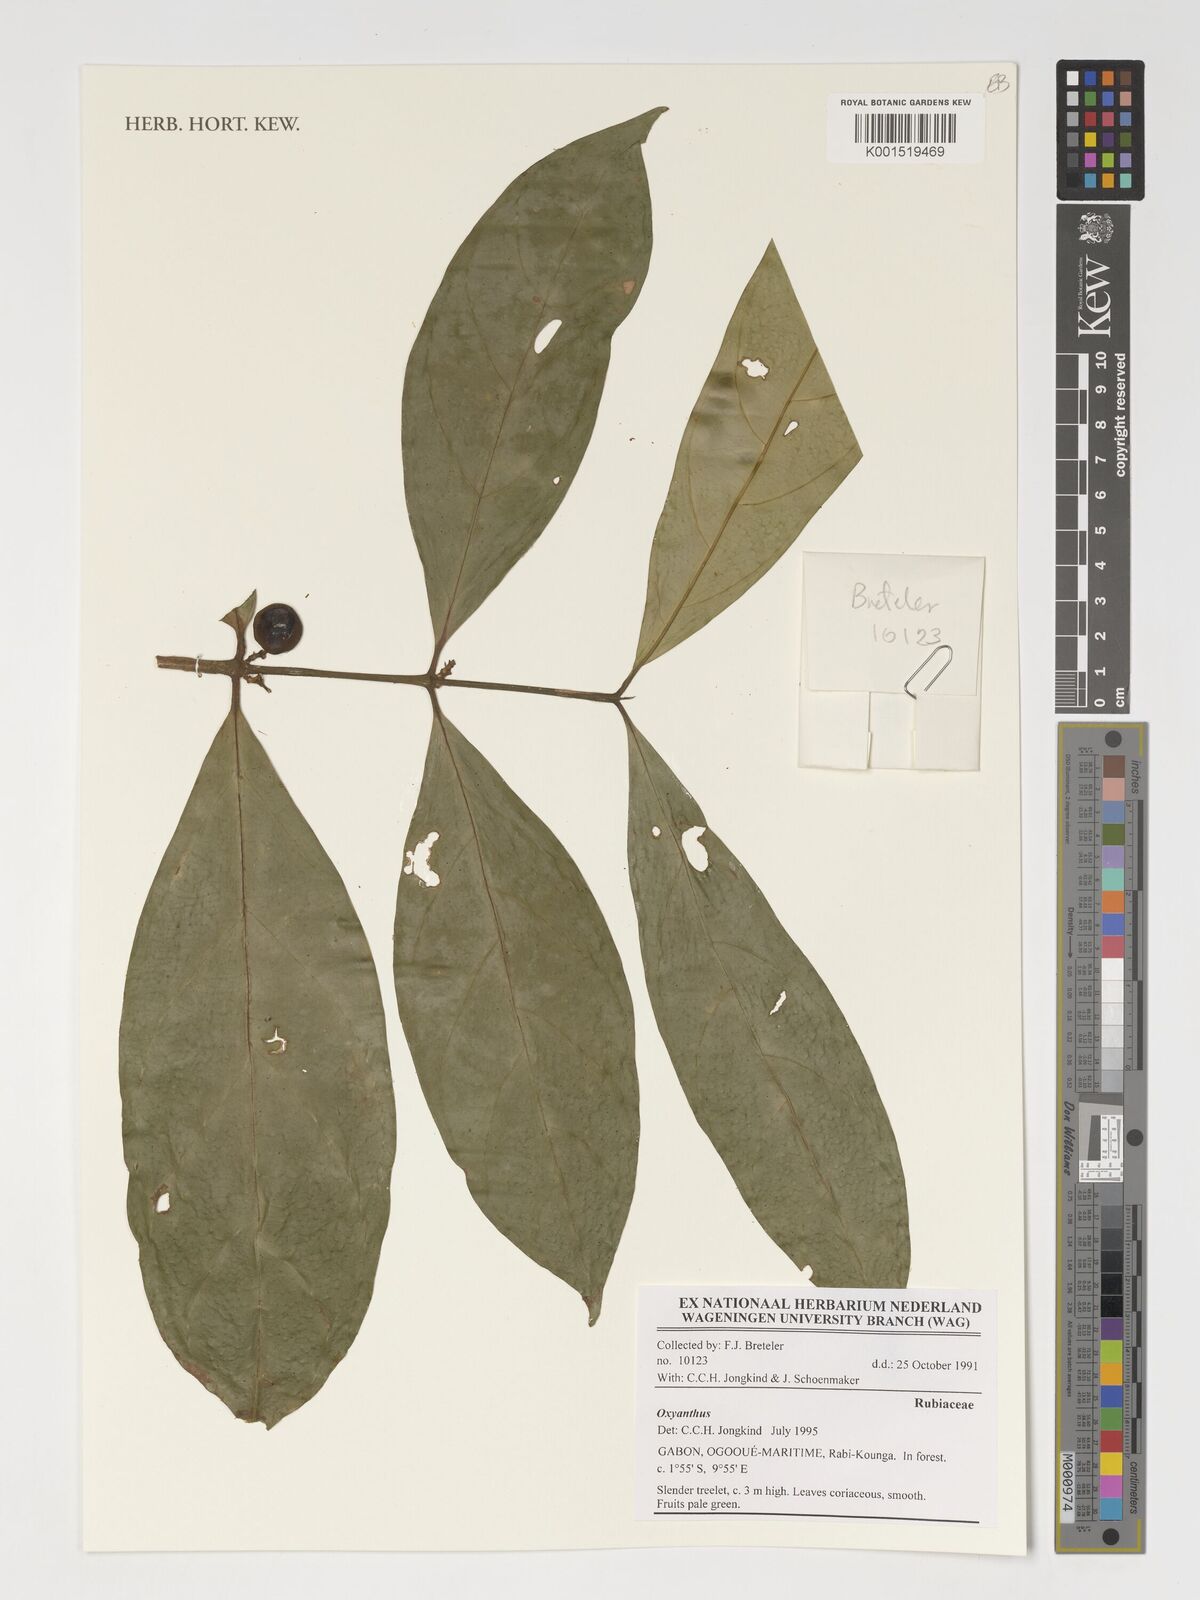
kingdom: Plantae
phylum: Tracheophyta
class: Magnoliopsida
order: Gentianales
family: Rubiaceae
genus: Oxyanthus
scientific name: Oxyanthus
